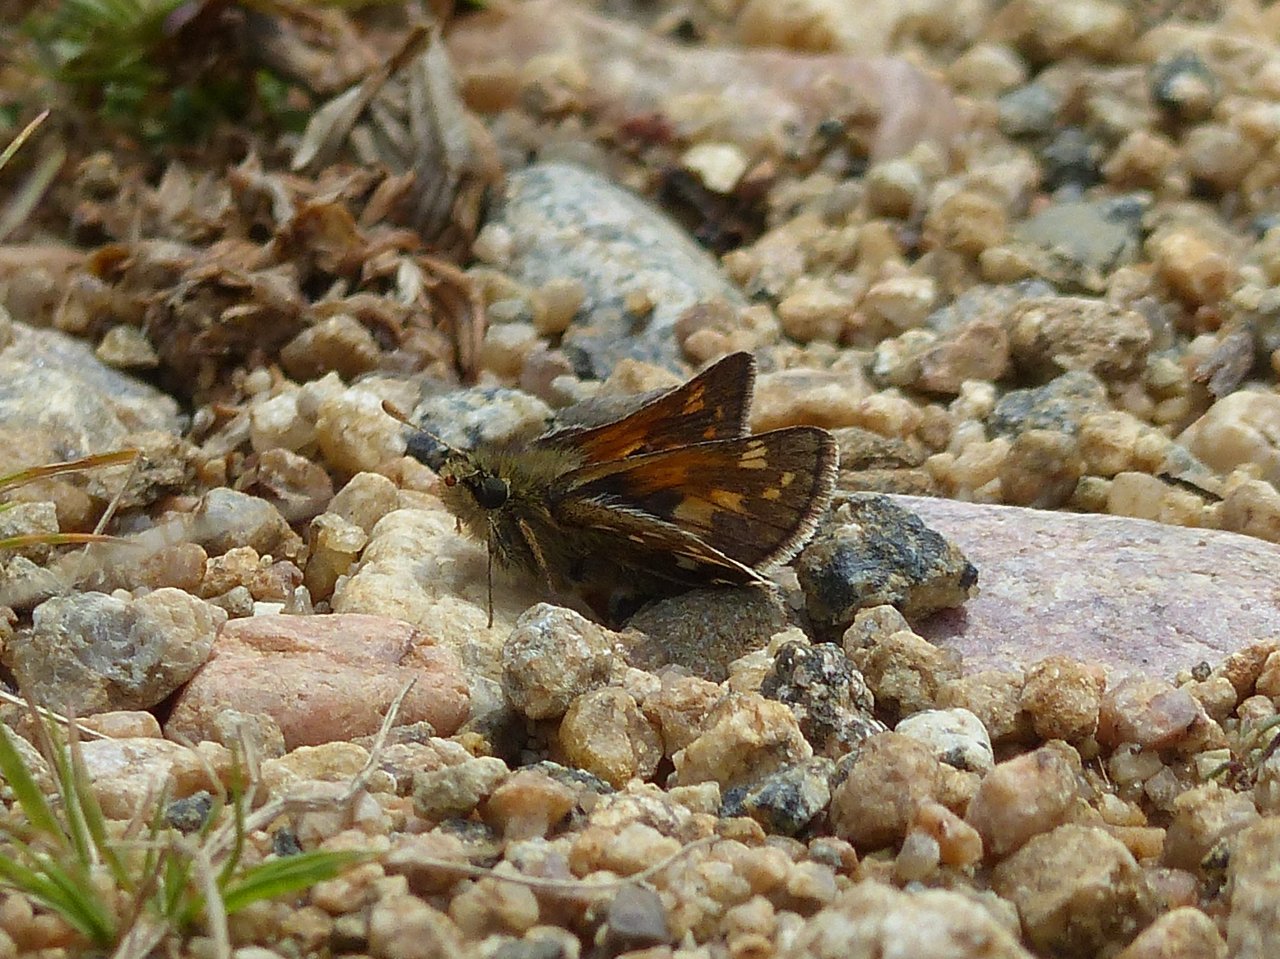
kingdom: Animalia
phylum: Arthropoda
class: Insecta
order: Lepidoptera
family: Hesperiidae
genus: Polites
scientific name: Polites sabuleti
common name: Draco Skipper
